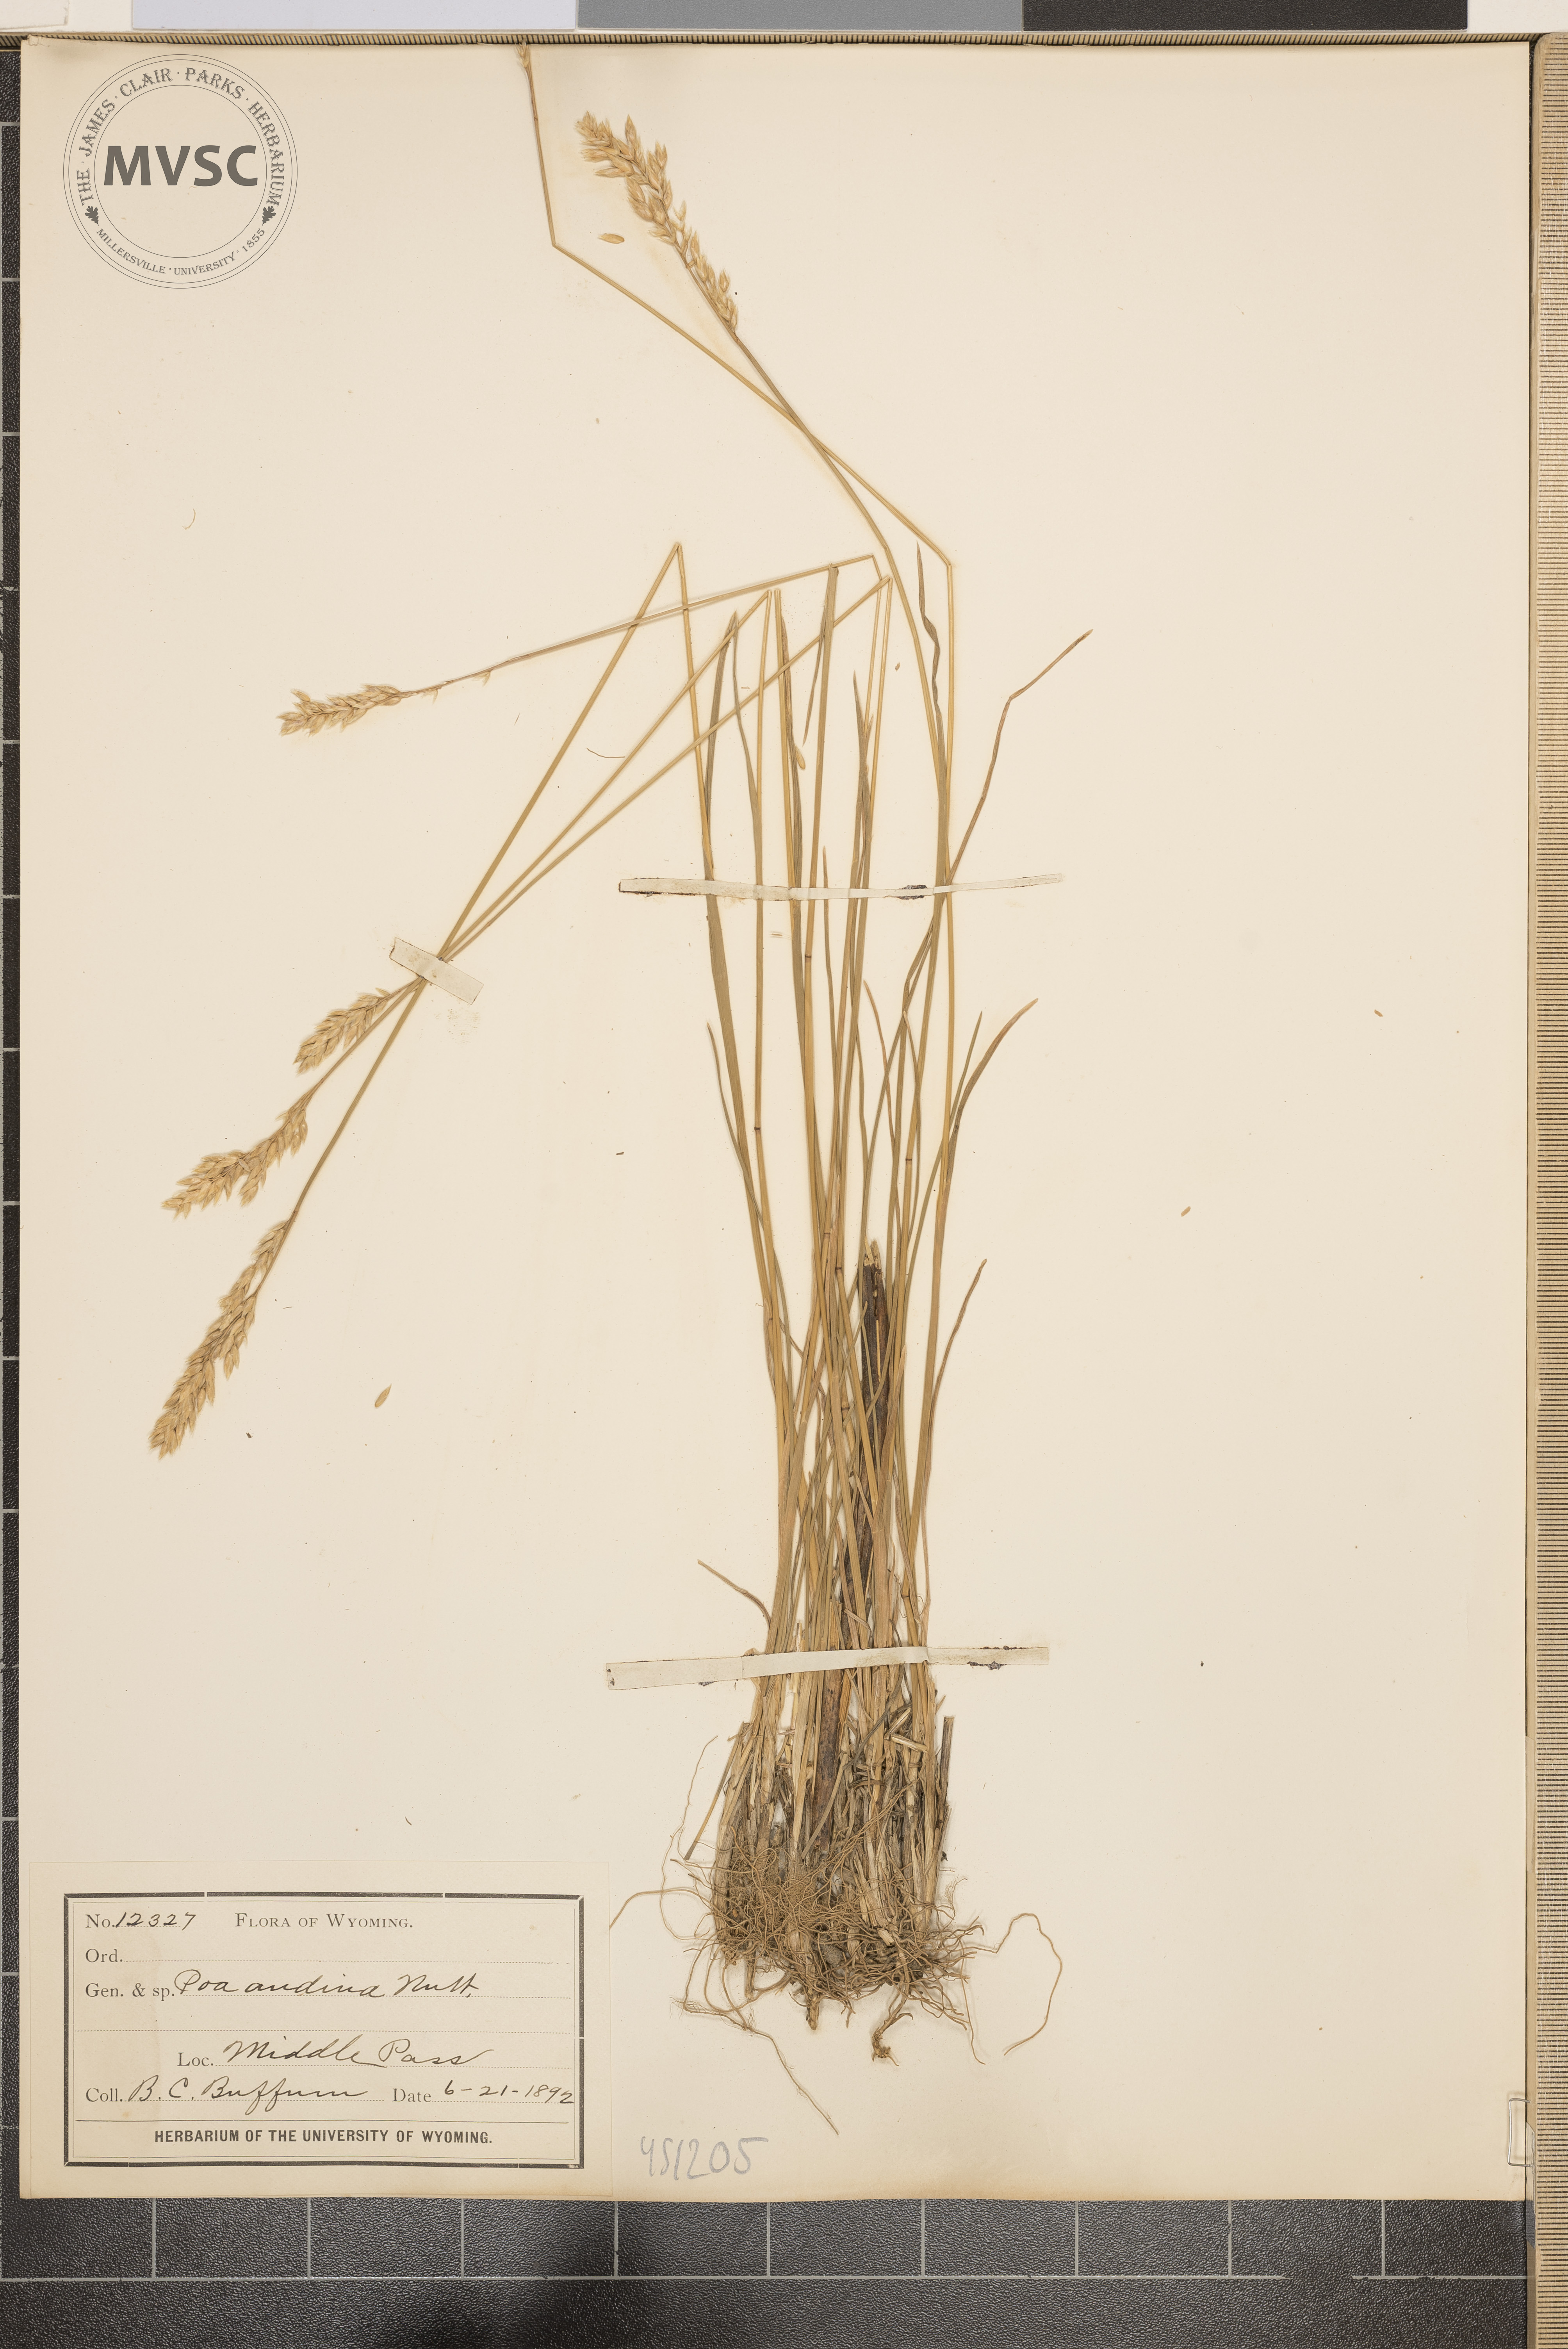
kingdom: Plantae
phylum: Tracheophyta
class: Liliopsida
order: Poales
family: Poaceae
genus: Poa
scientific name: Poa secunda
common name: Sandberg bluegrass
